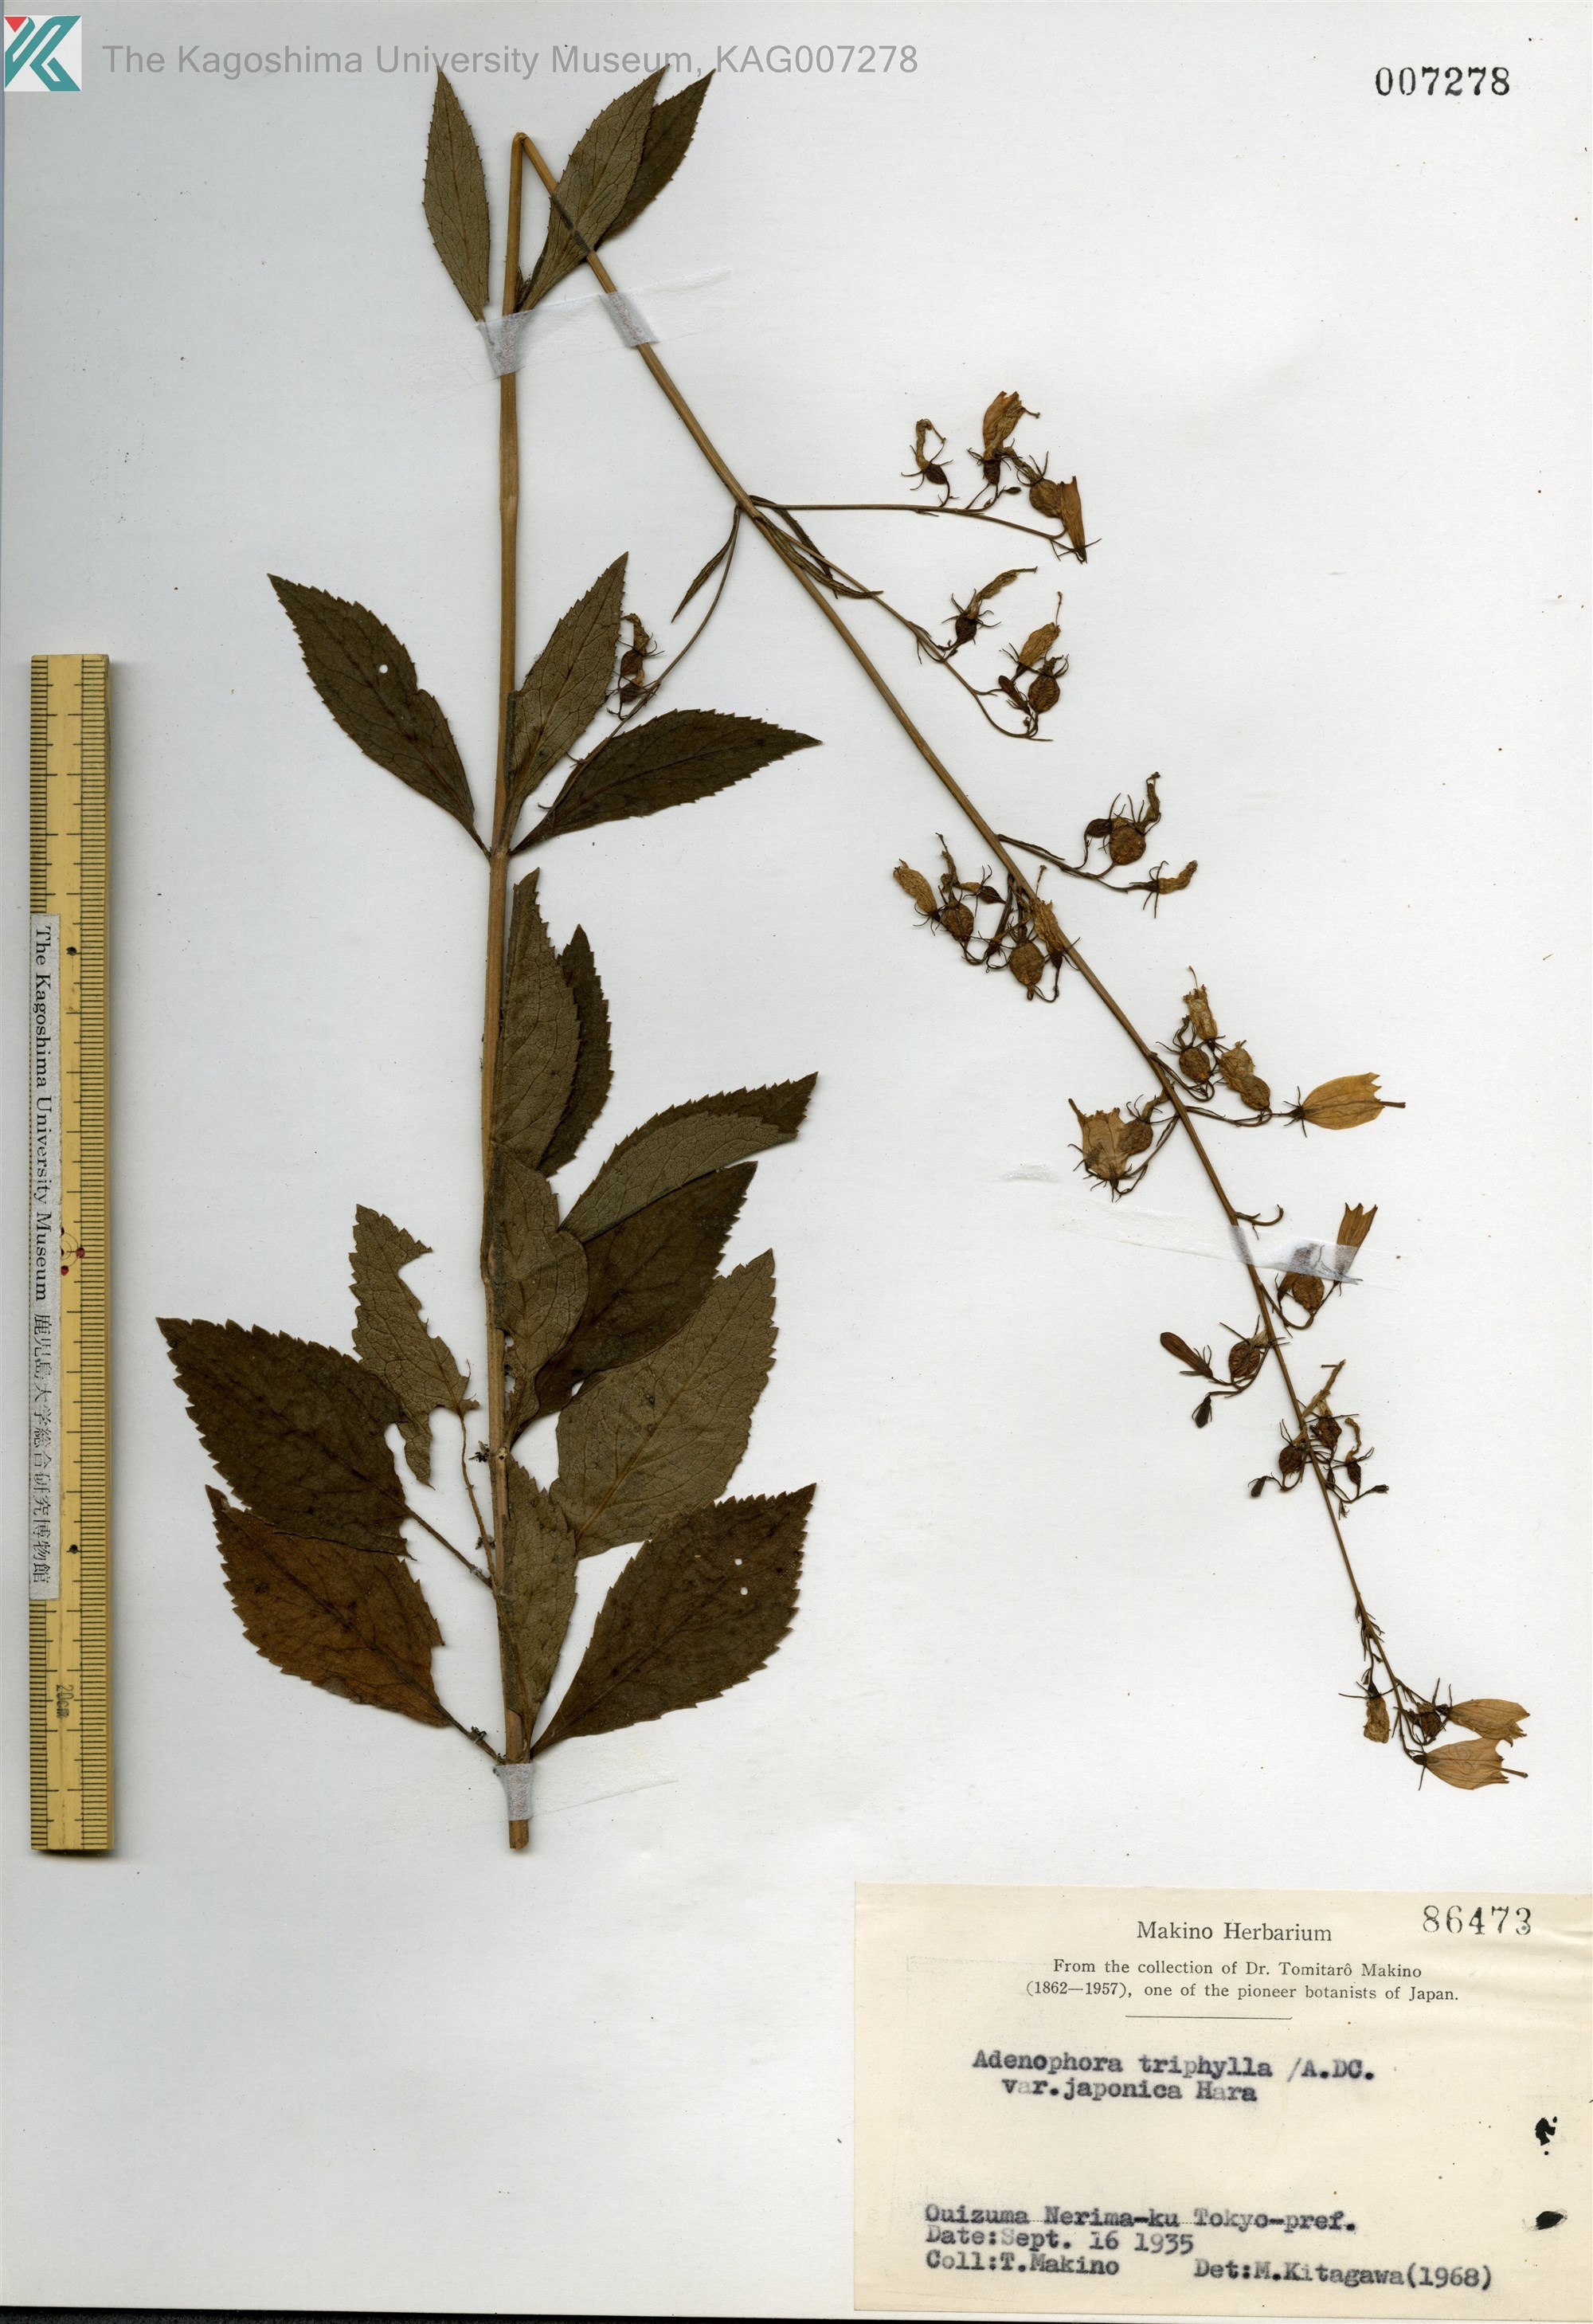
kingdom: Plantae
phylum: Tracheophyta
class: Magnoliopsida
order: Asterales
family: Campanulaceae
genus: Adenophora
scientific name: Adenophora triphylla
